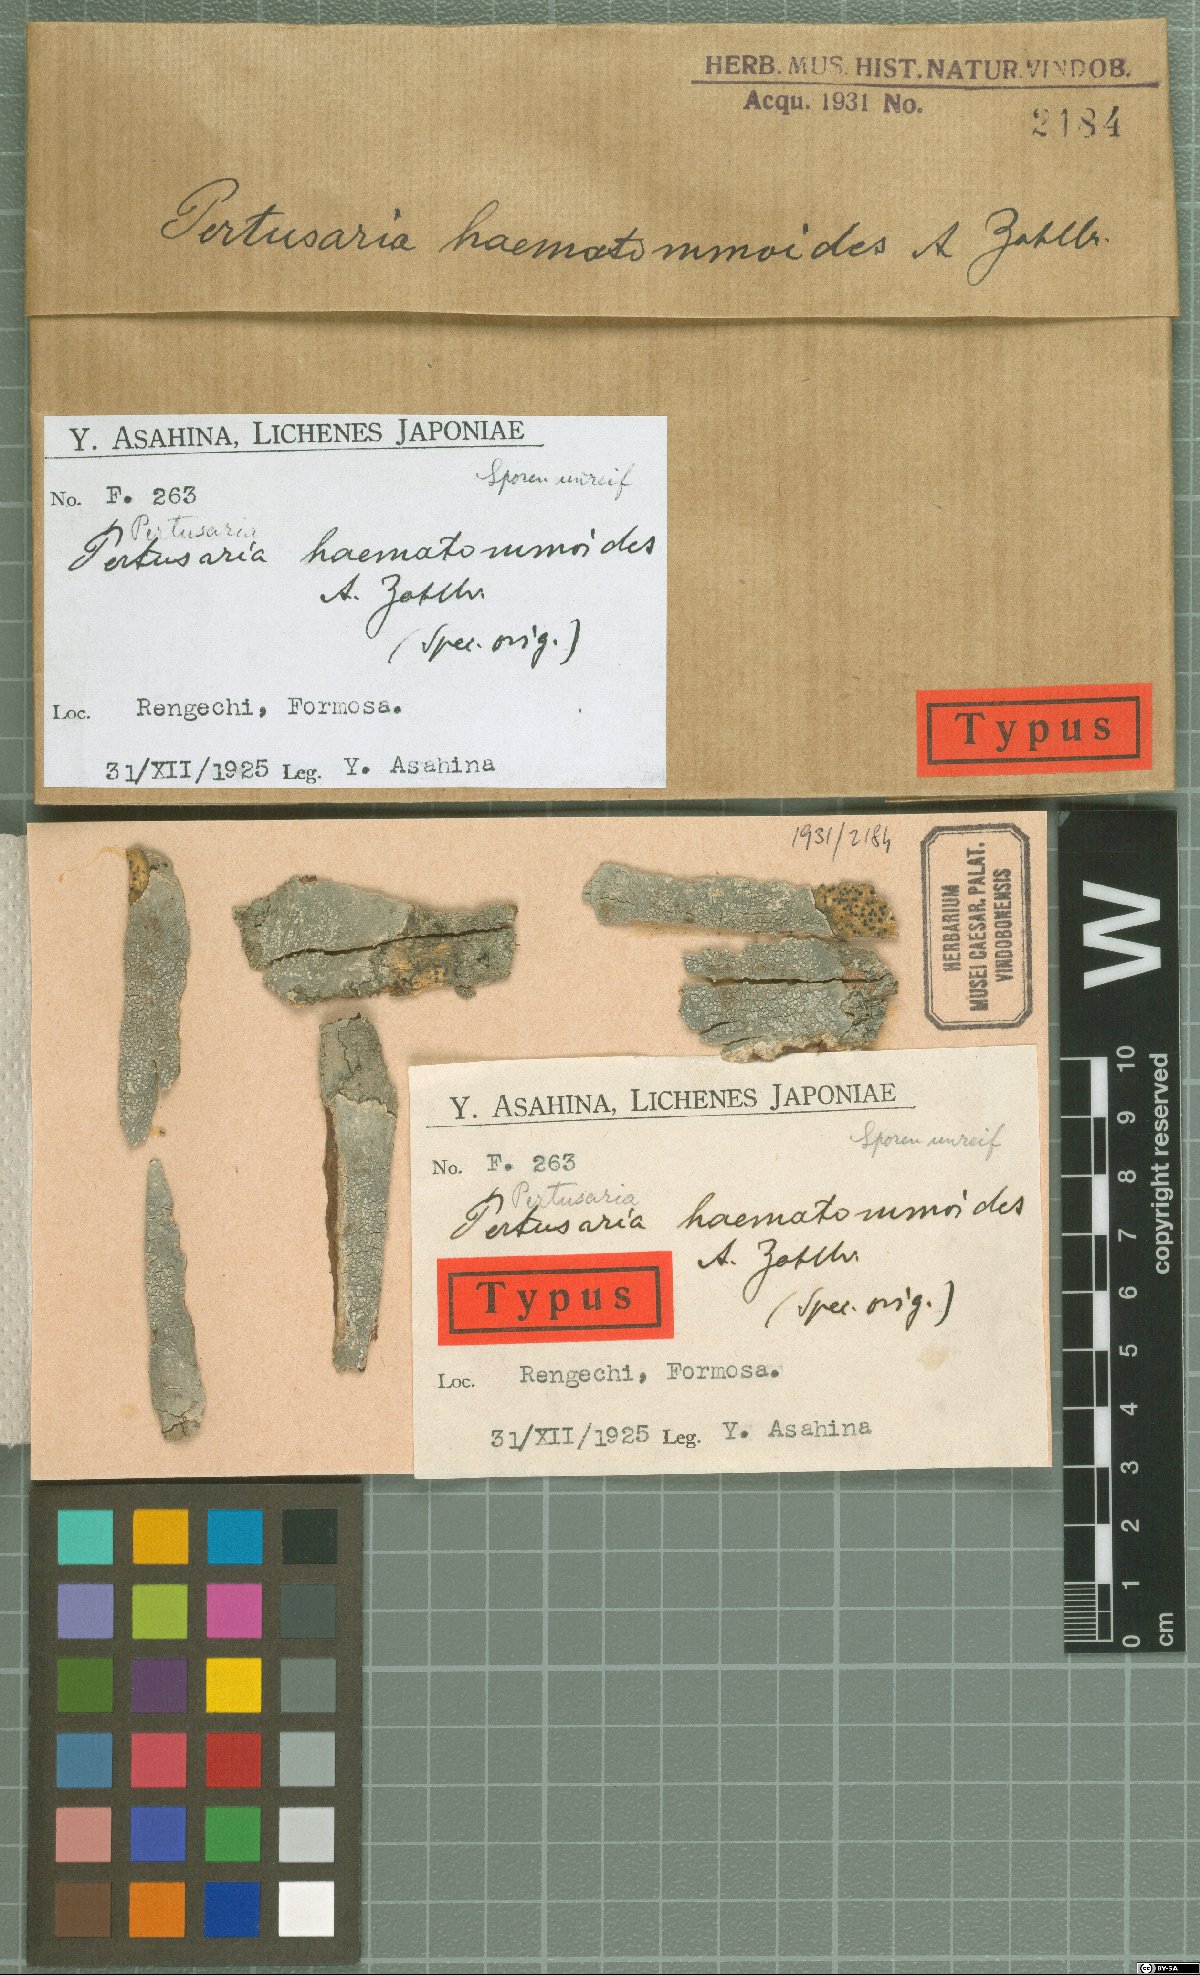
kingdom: Fungi
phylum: Ascomycota
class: Lecanoromycetes
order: Pertusariales
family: Pertusariaceae
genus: Pertusaria
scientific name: Pertusaria haematommoides
